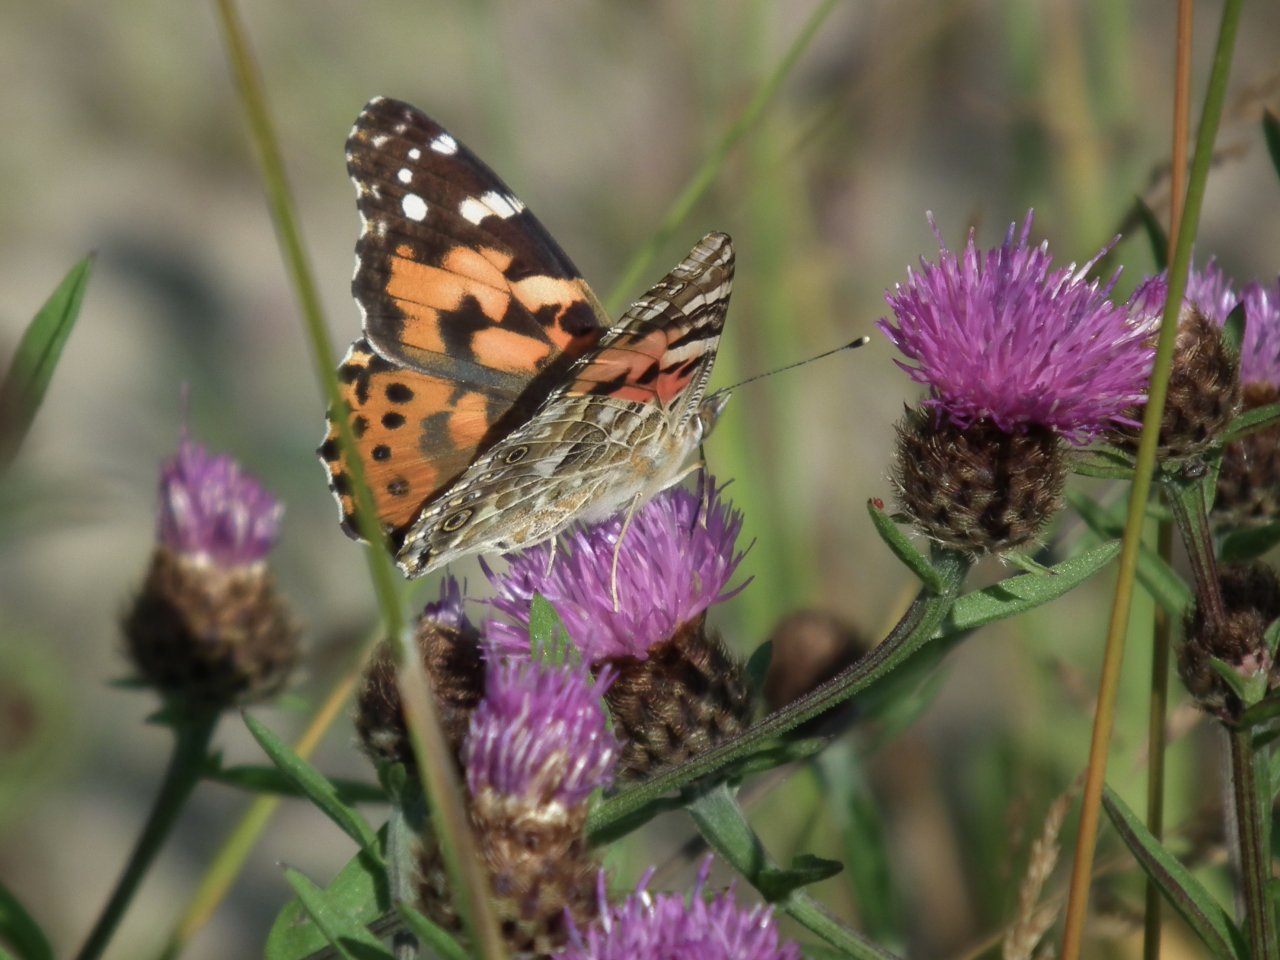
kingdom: Animalia
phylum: Arthropoda
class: Insecta
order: Lepidoptera
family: Nymphalidae
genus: Vanessa
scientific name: Vanessa cardui
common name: Painted Lady
